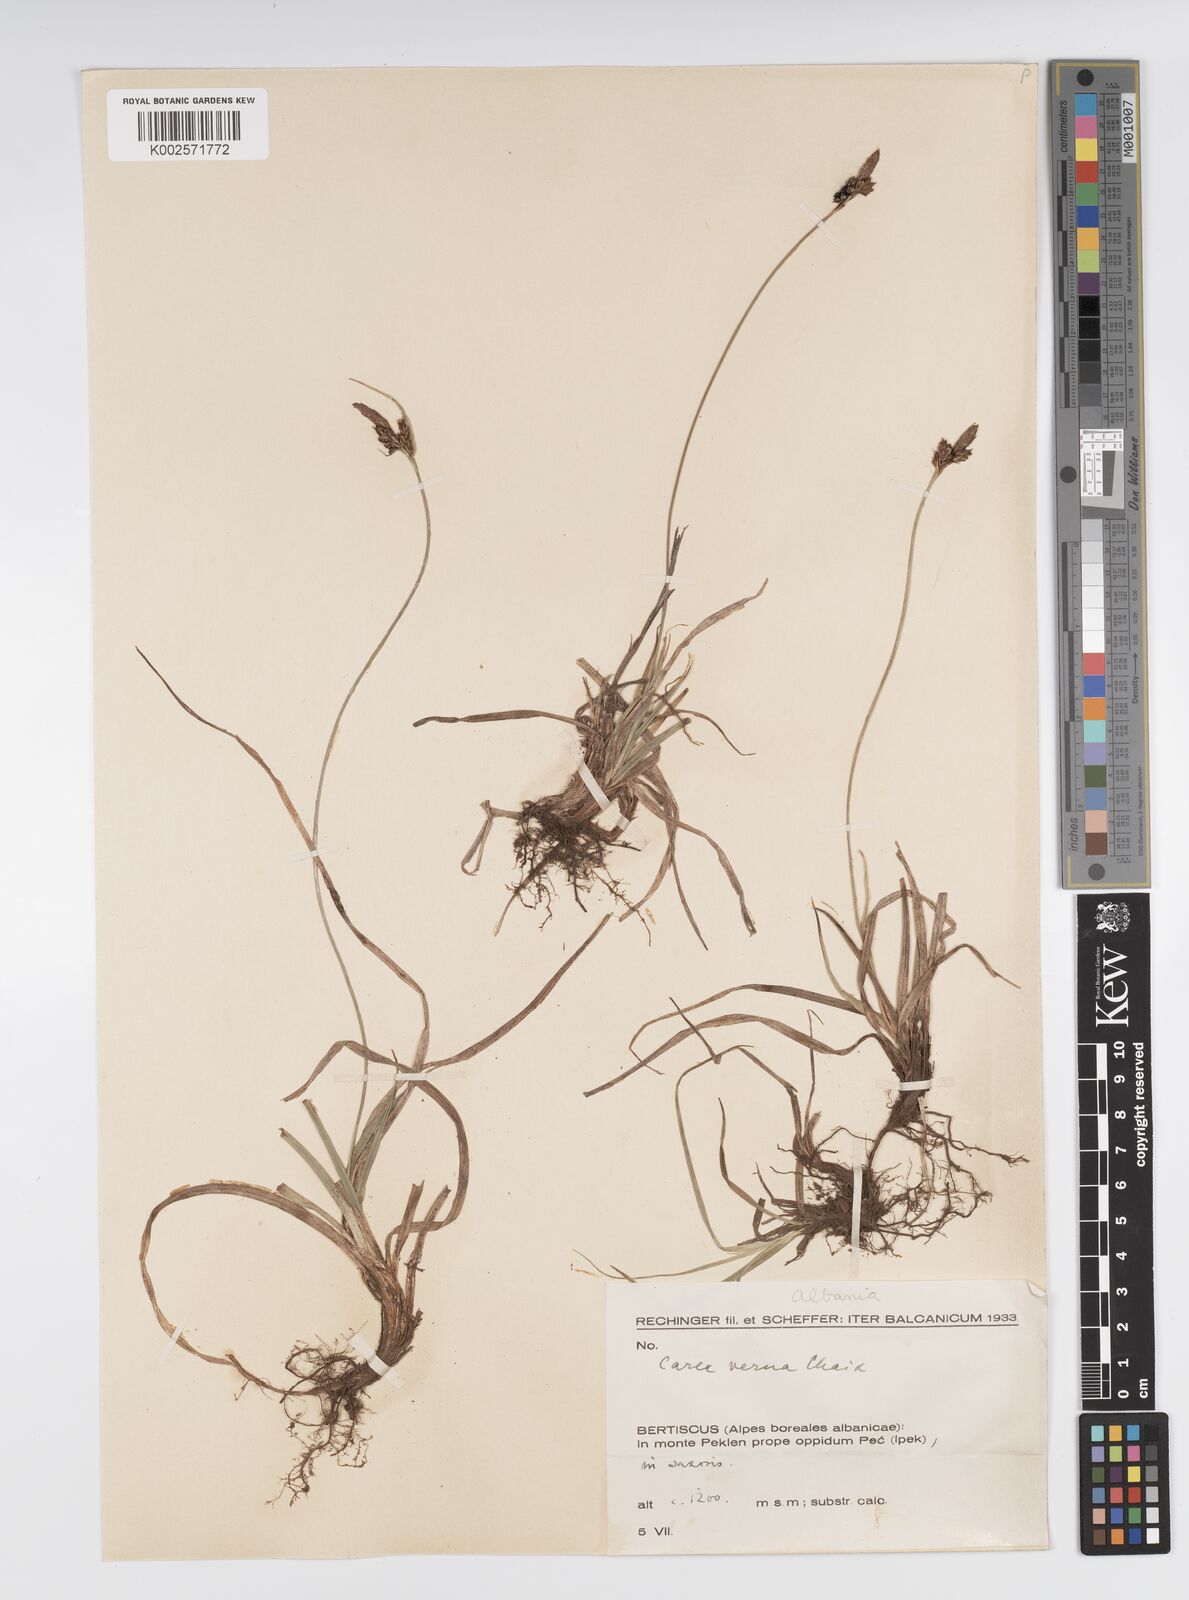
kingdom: Plantae
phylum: Tracheophyta
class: Liliopsida
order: Poales
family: Cyperaceae
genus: Carex
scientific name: Carex caryophyllea
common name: Spring sedge
